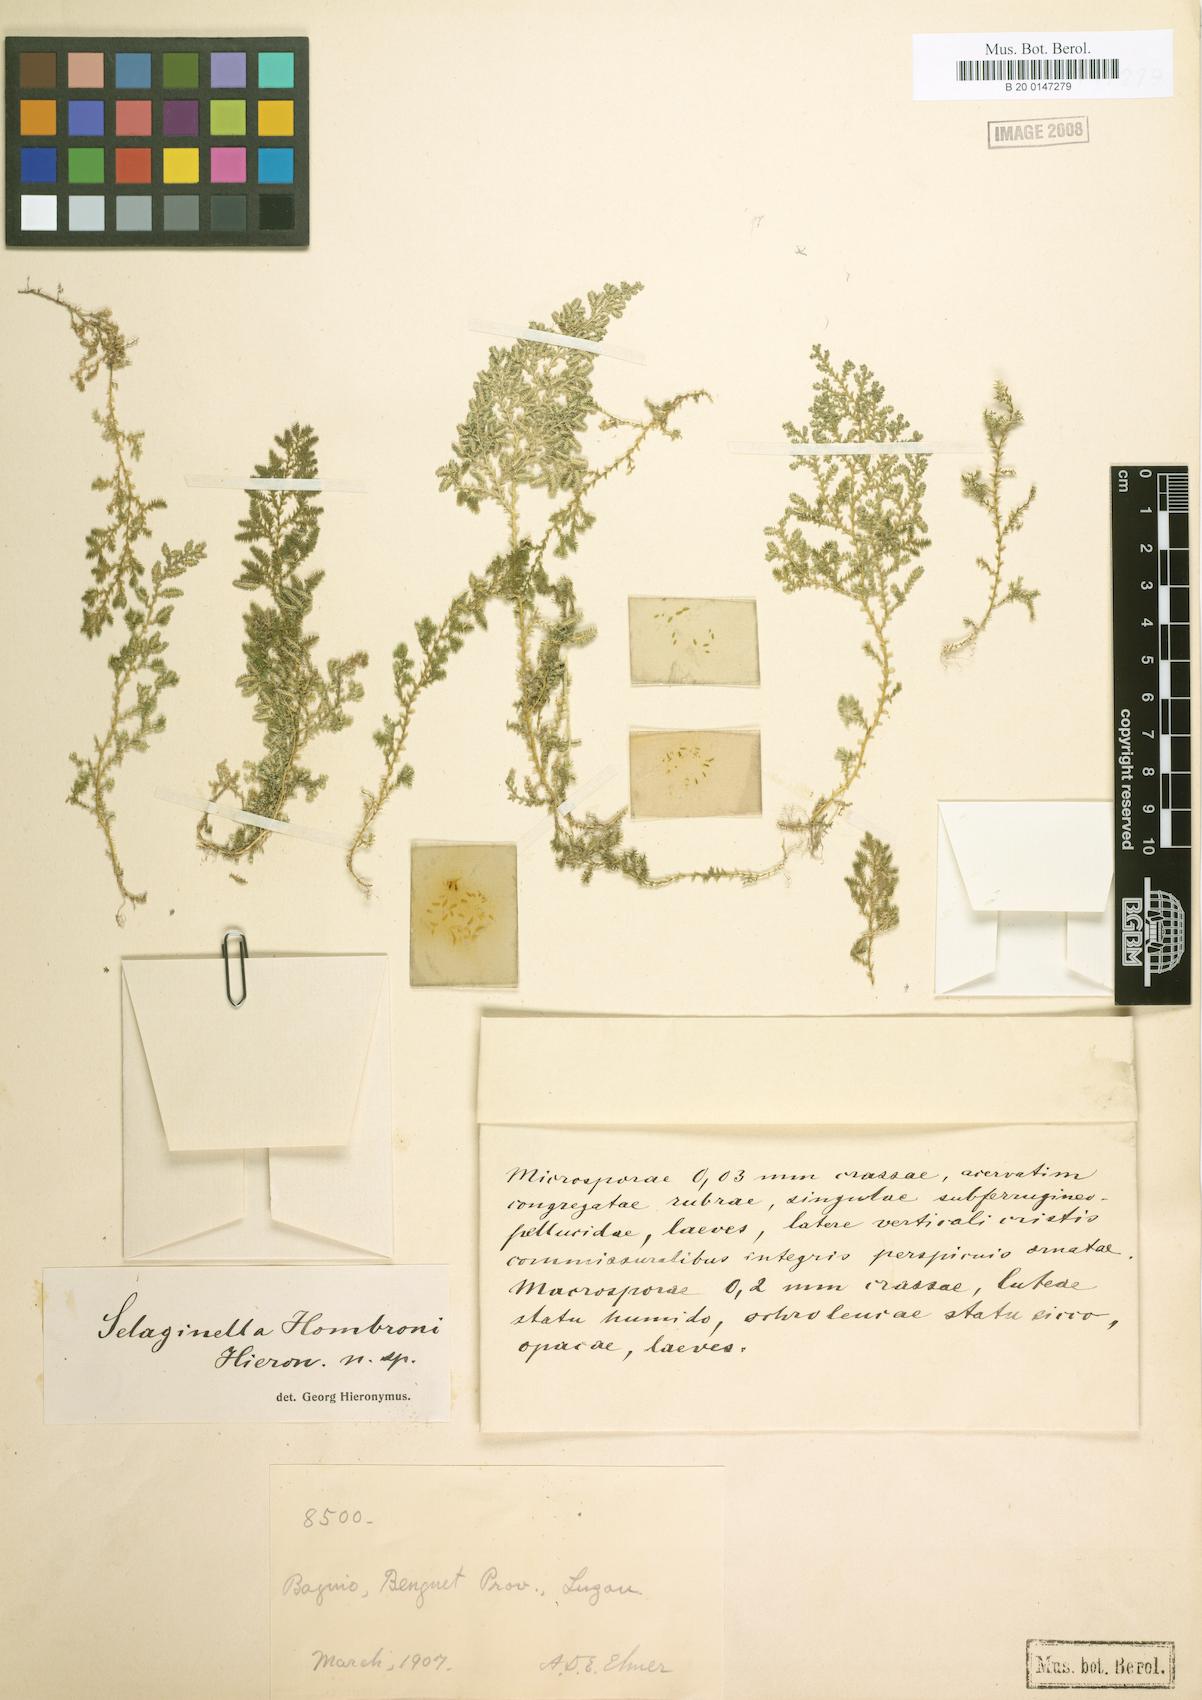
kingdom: Plantae
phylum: Tracheophyta
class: Lycopodiopsida
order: Selaginellales
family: Selaginellaceae
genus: Selaginella
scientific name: Selaginella philippsiana
